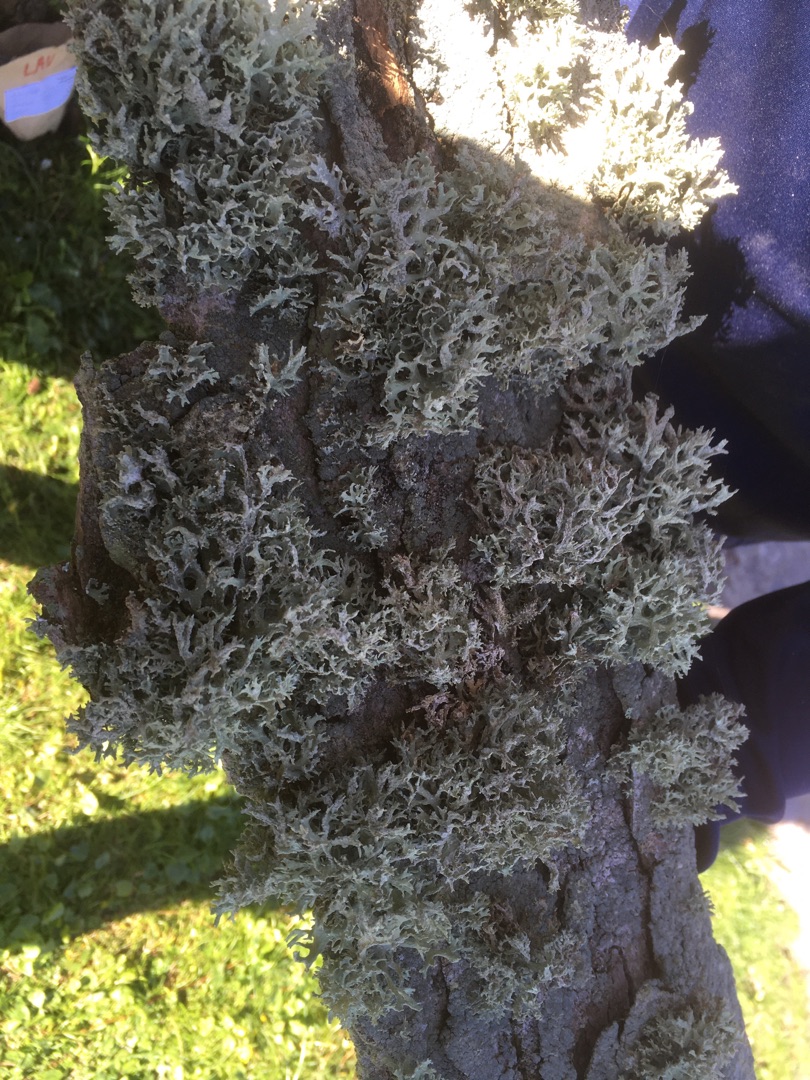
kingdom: Fungi
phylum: Ascomycota
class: Lecanoromycetes
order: Lecanorales
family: Parmeliaceae
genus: Evernia
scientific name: Evernia prunastri
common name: Almindelig slåenlav
